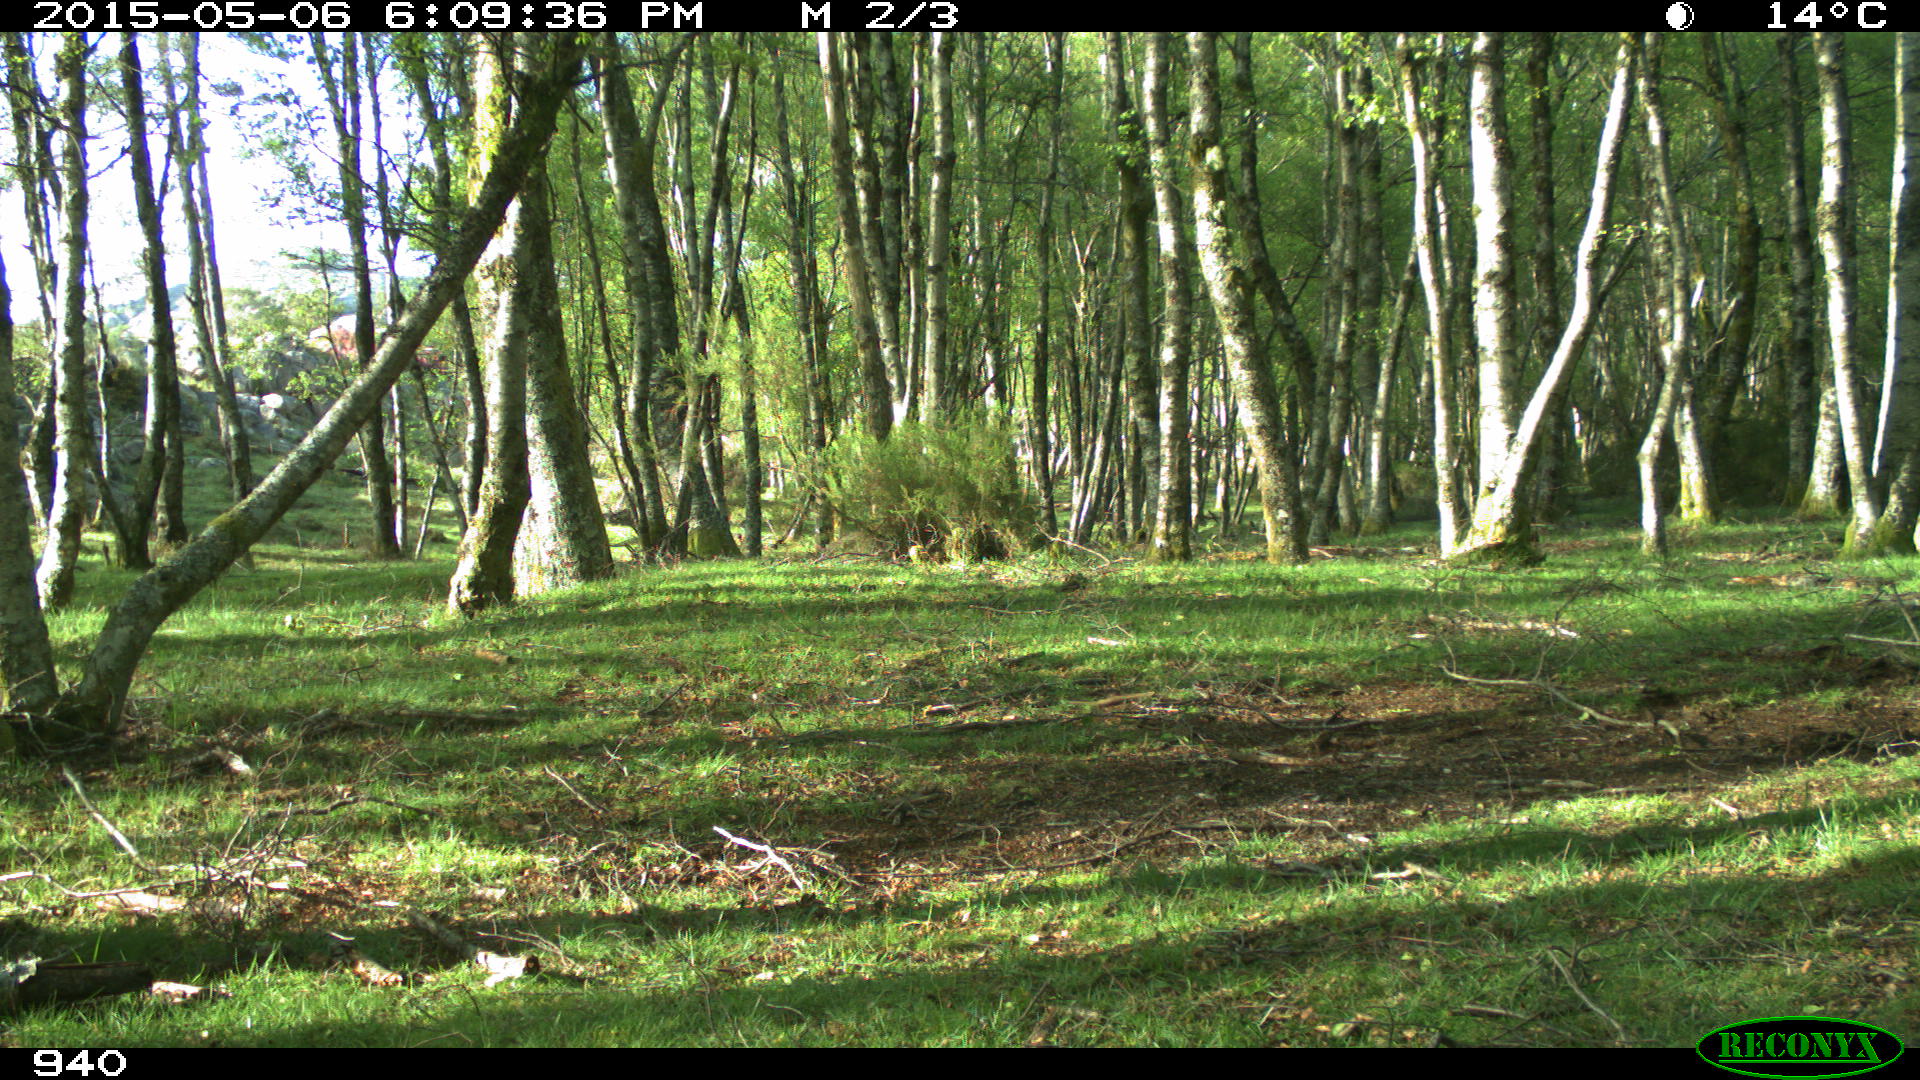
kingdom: Animalia
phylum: Chordata
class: Mammalia
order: Perissodactyla
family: Equidae
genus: Equus
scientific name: Equus caballus
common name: Horse
